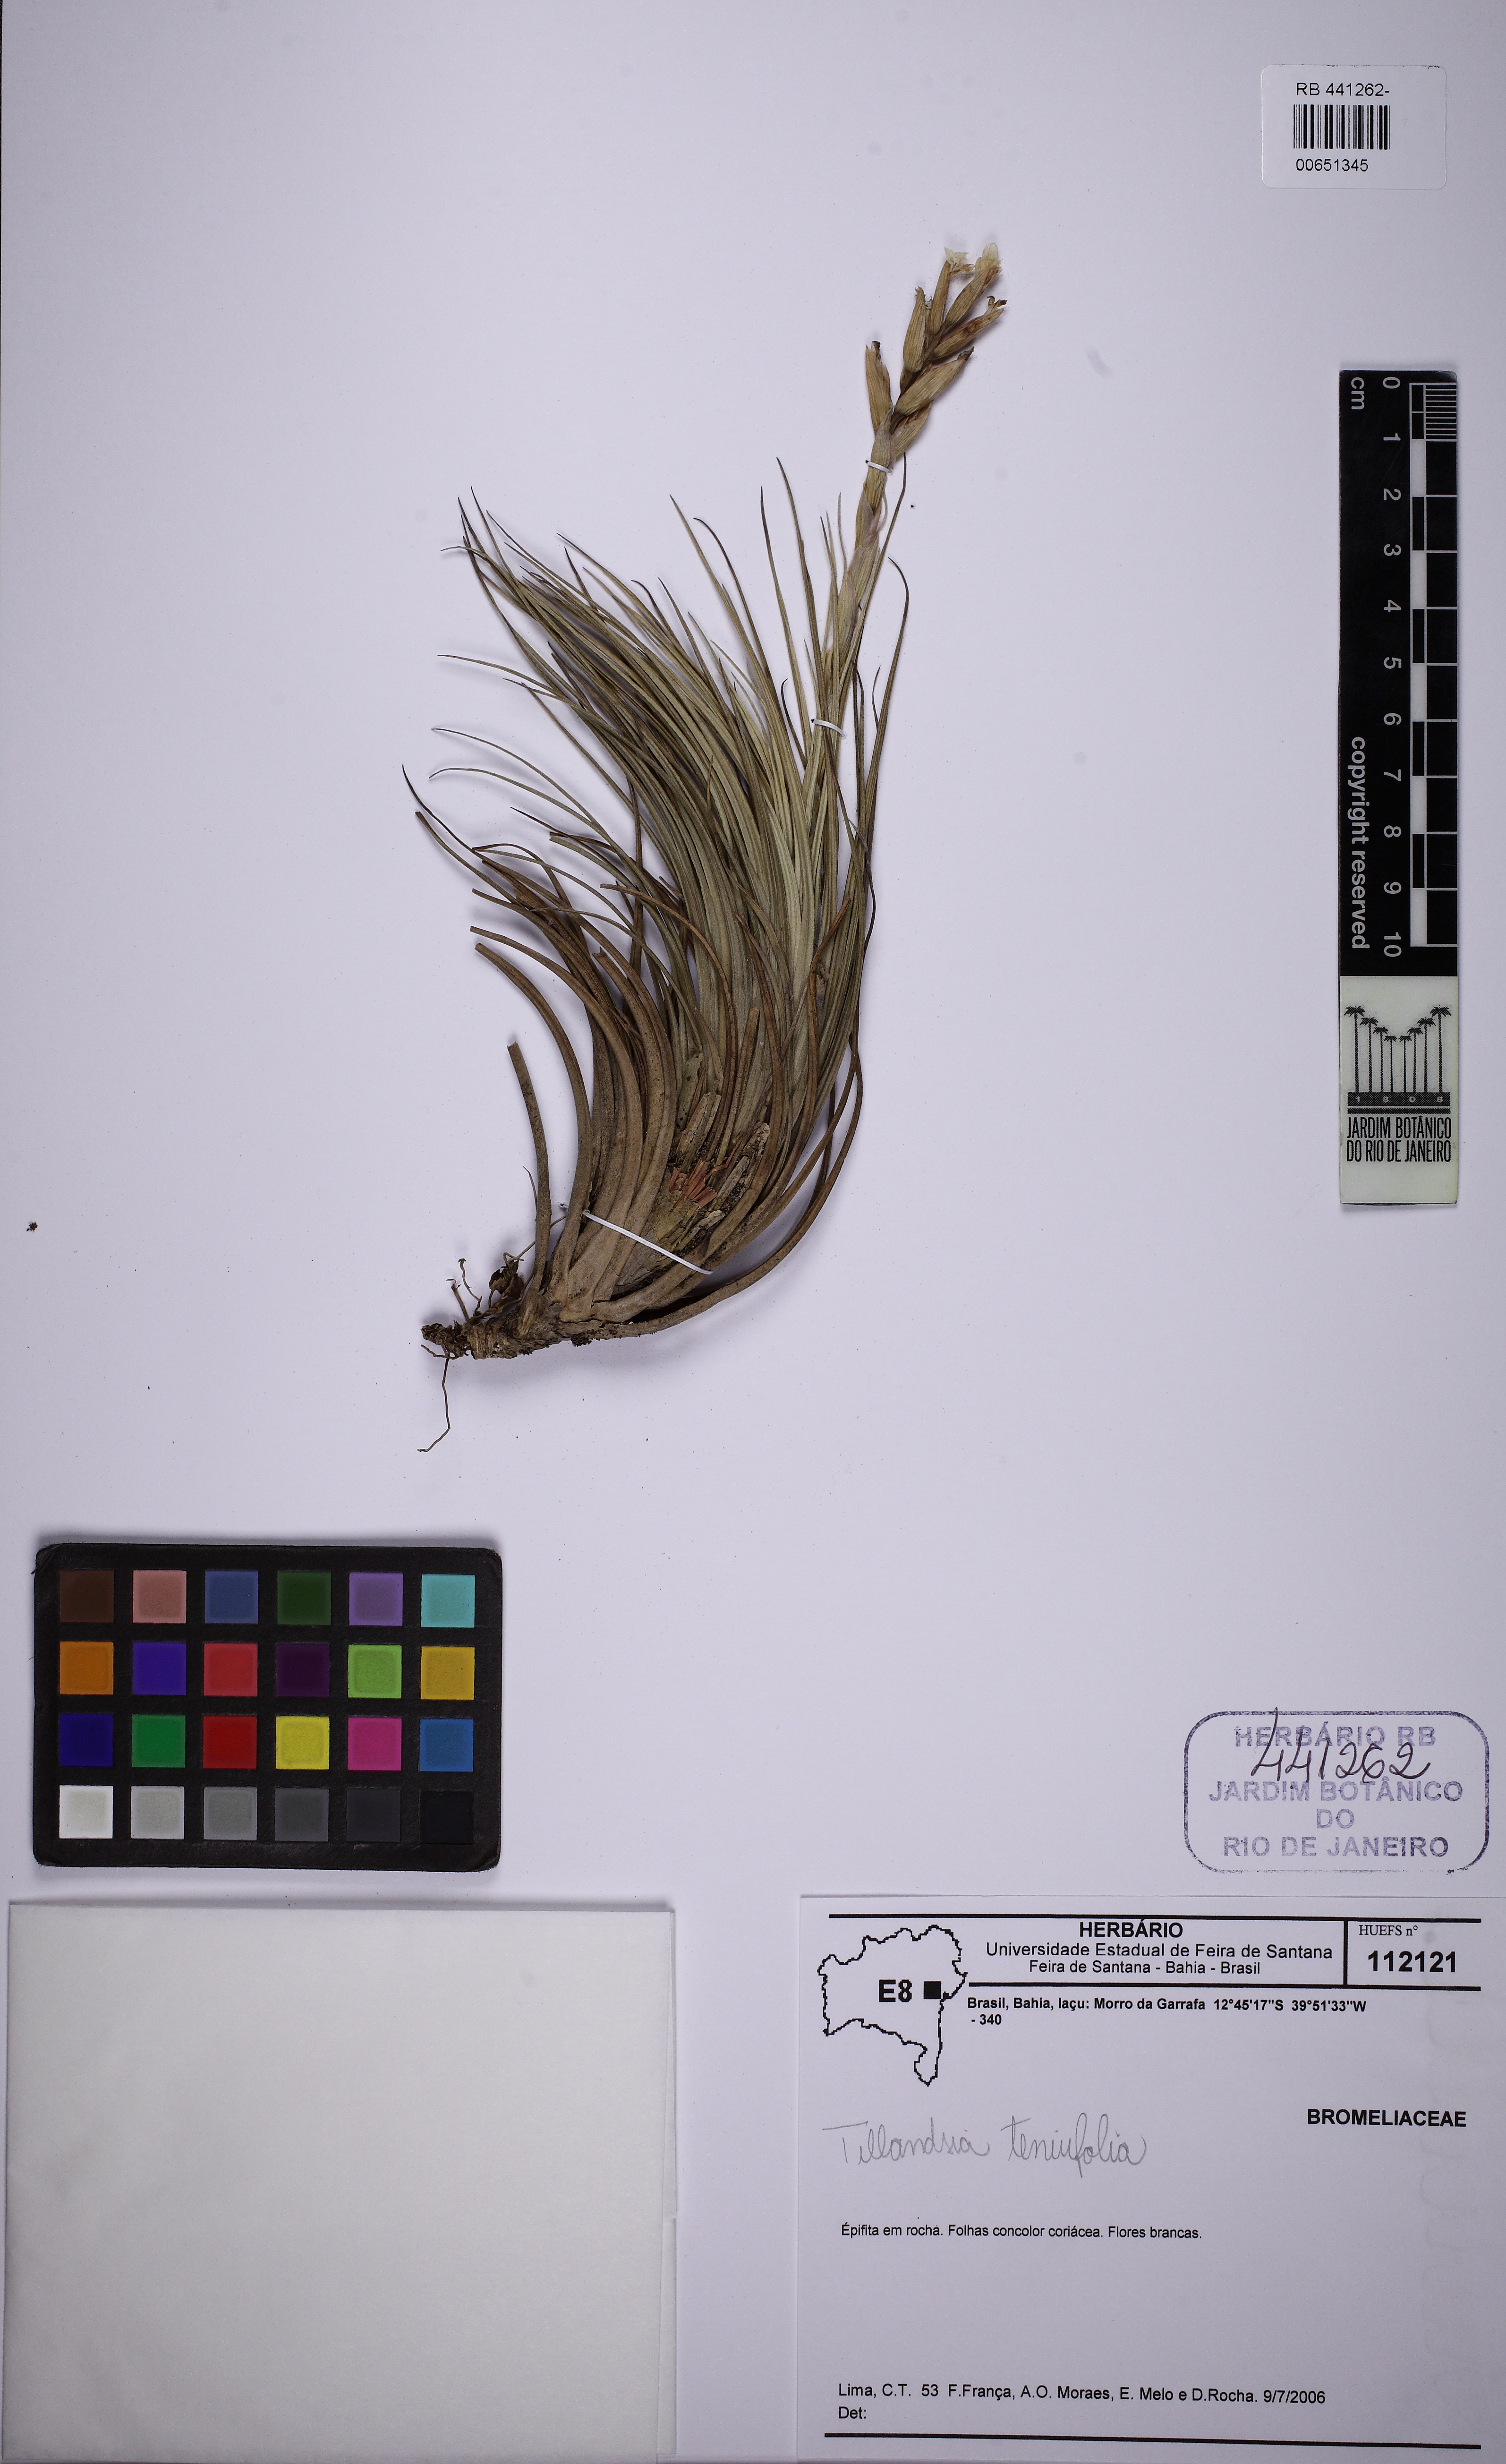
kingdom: Plantae
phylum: Tracheophyta
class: Liliopsida
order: Poales
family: Bromeliaceae
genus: Tillandsia
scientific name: Tillandsia tenuifolia
